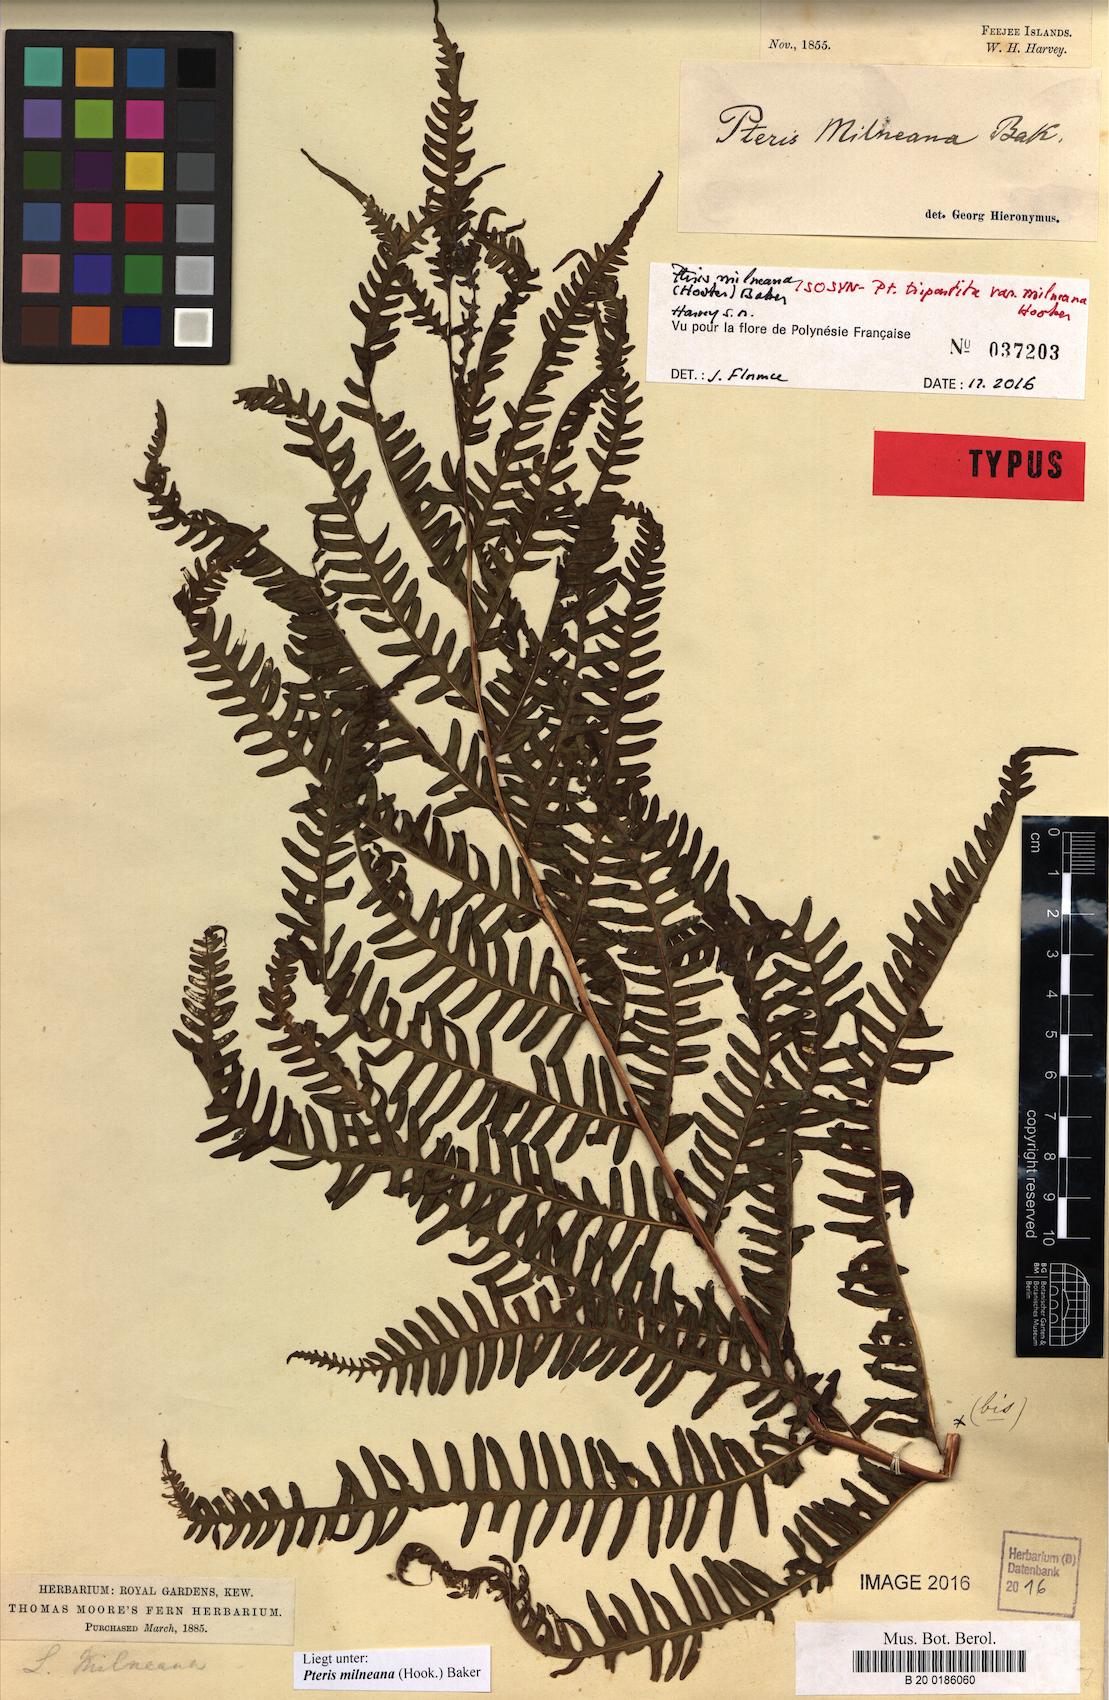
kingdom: Plantae
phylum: Tracheophyta
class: Polypodiopsida
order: Polypodiales
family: Pteridaceae
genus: Pteris
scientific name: Pteris tripartita
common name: Giant brake
